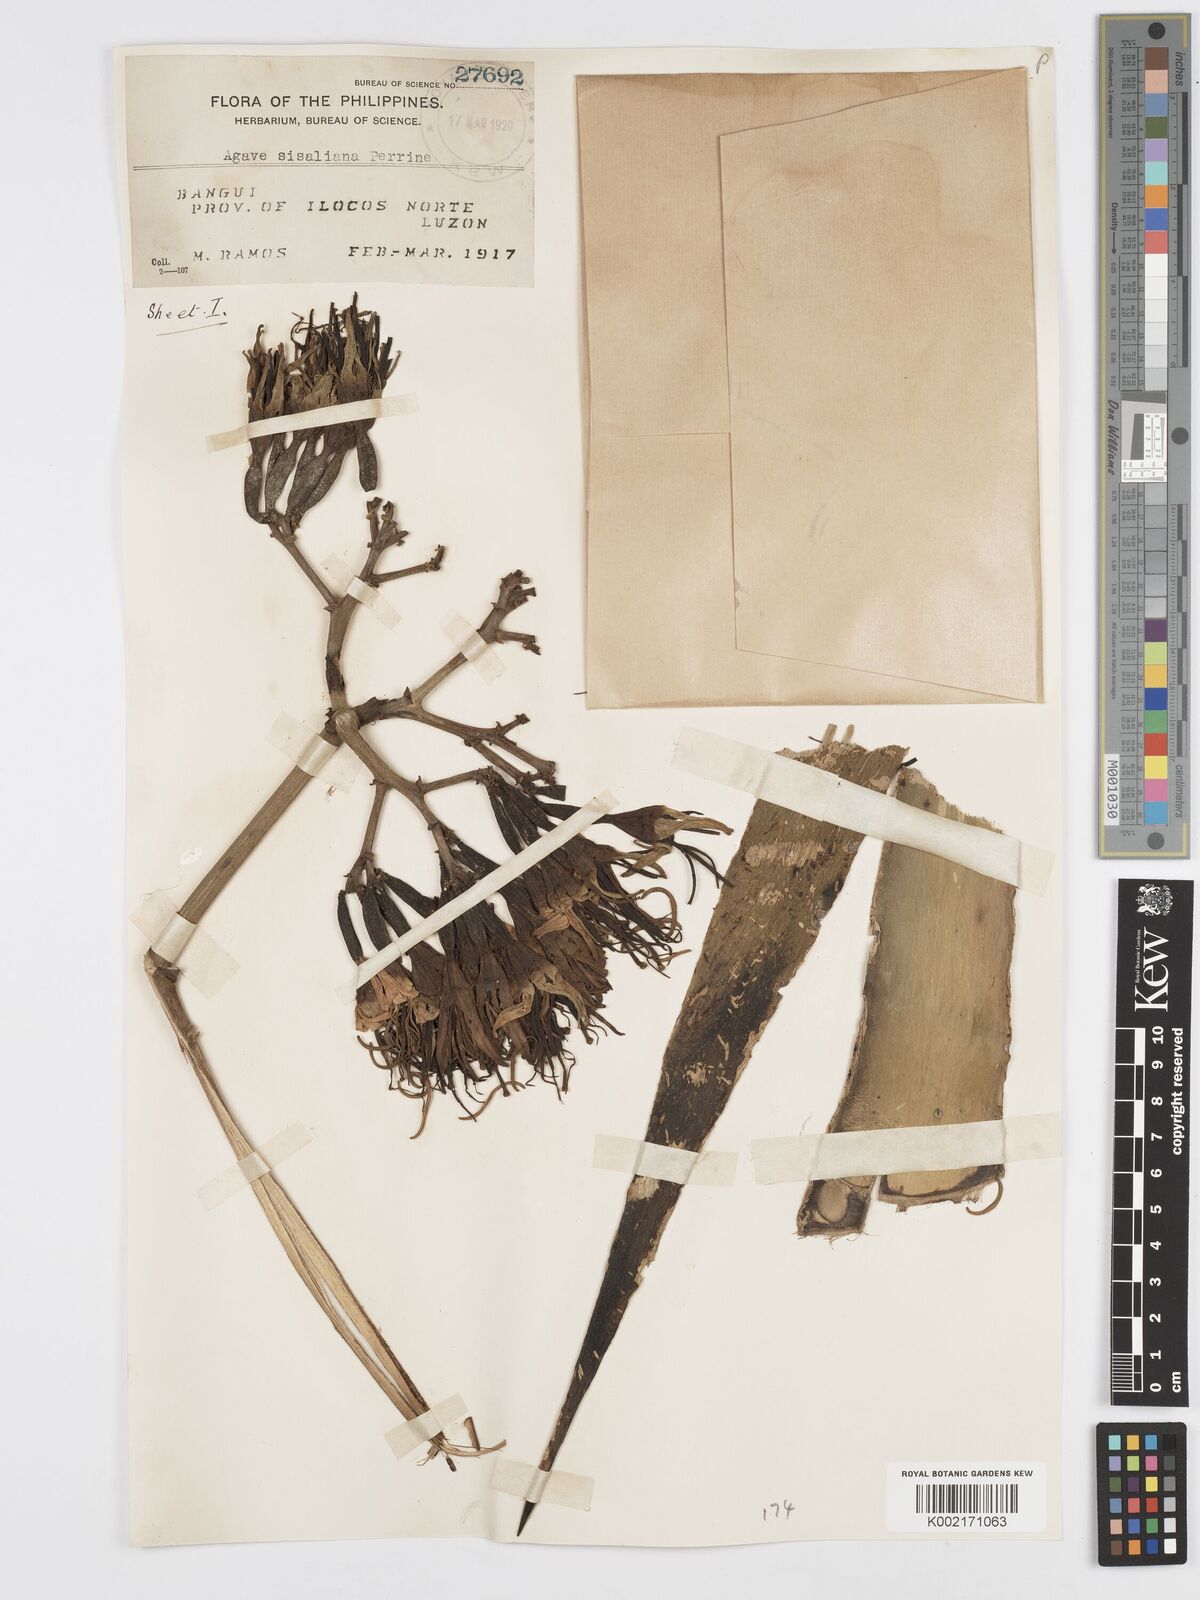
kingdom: Plantae
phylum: Tracheophyta
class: Liliopsida
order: Asparagales
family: Asparagaceae
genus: Agave
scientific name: Agave sisalana
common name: Sisal hemp
